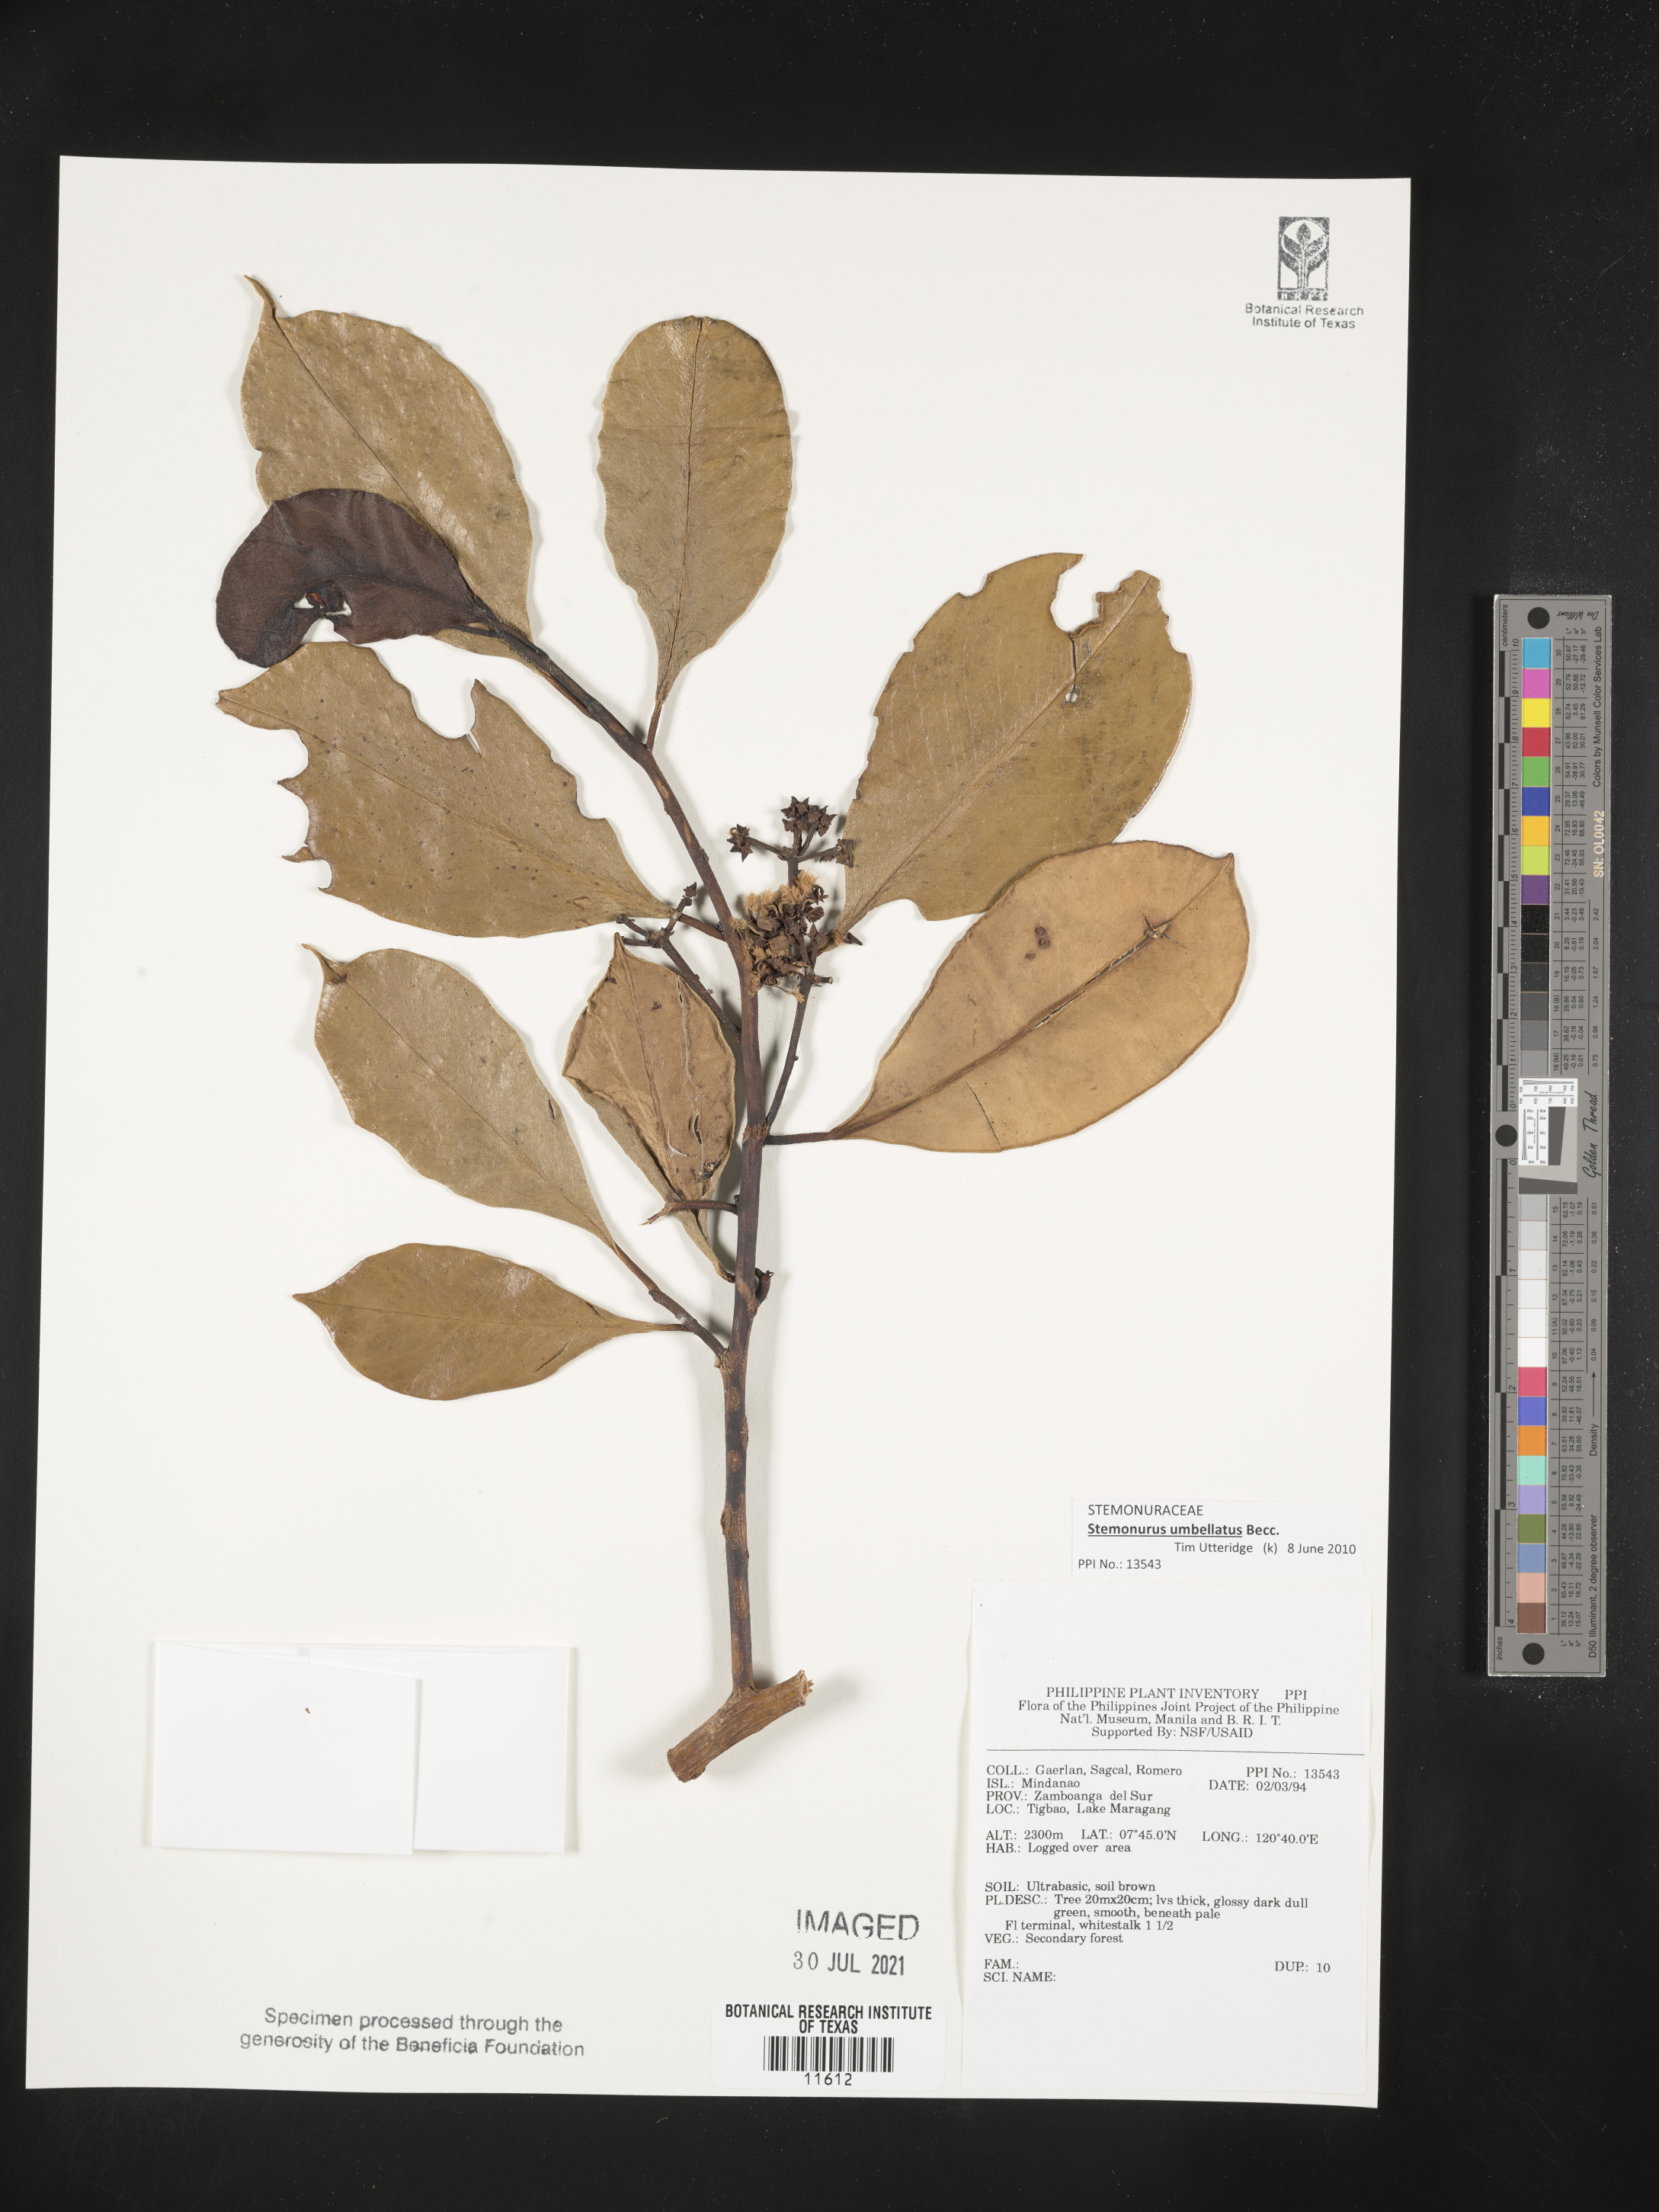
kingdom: Plantae
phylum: Tracheophyta
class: Magnoliopsida
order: Cardiopteridales
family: Stemonuraceae
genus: Stemonurus
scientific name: Stemonurus umbellatus
